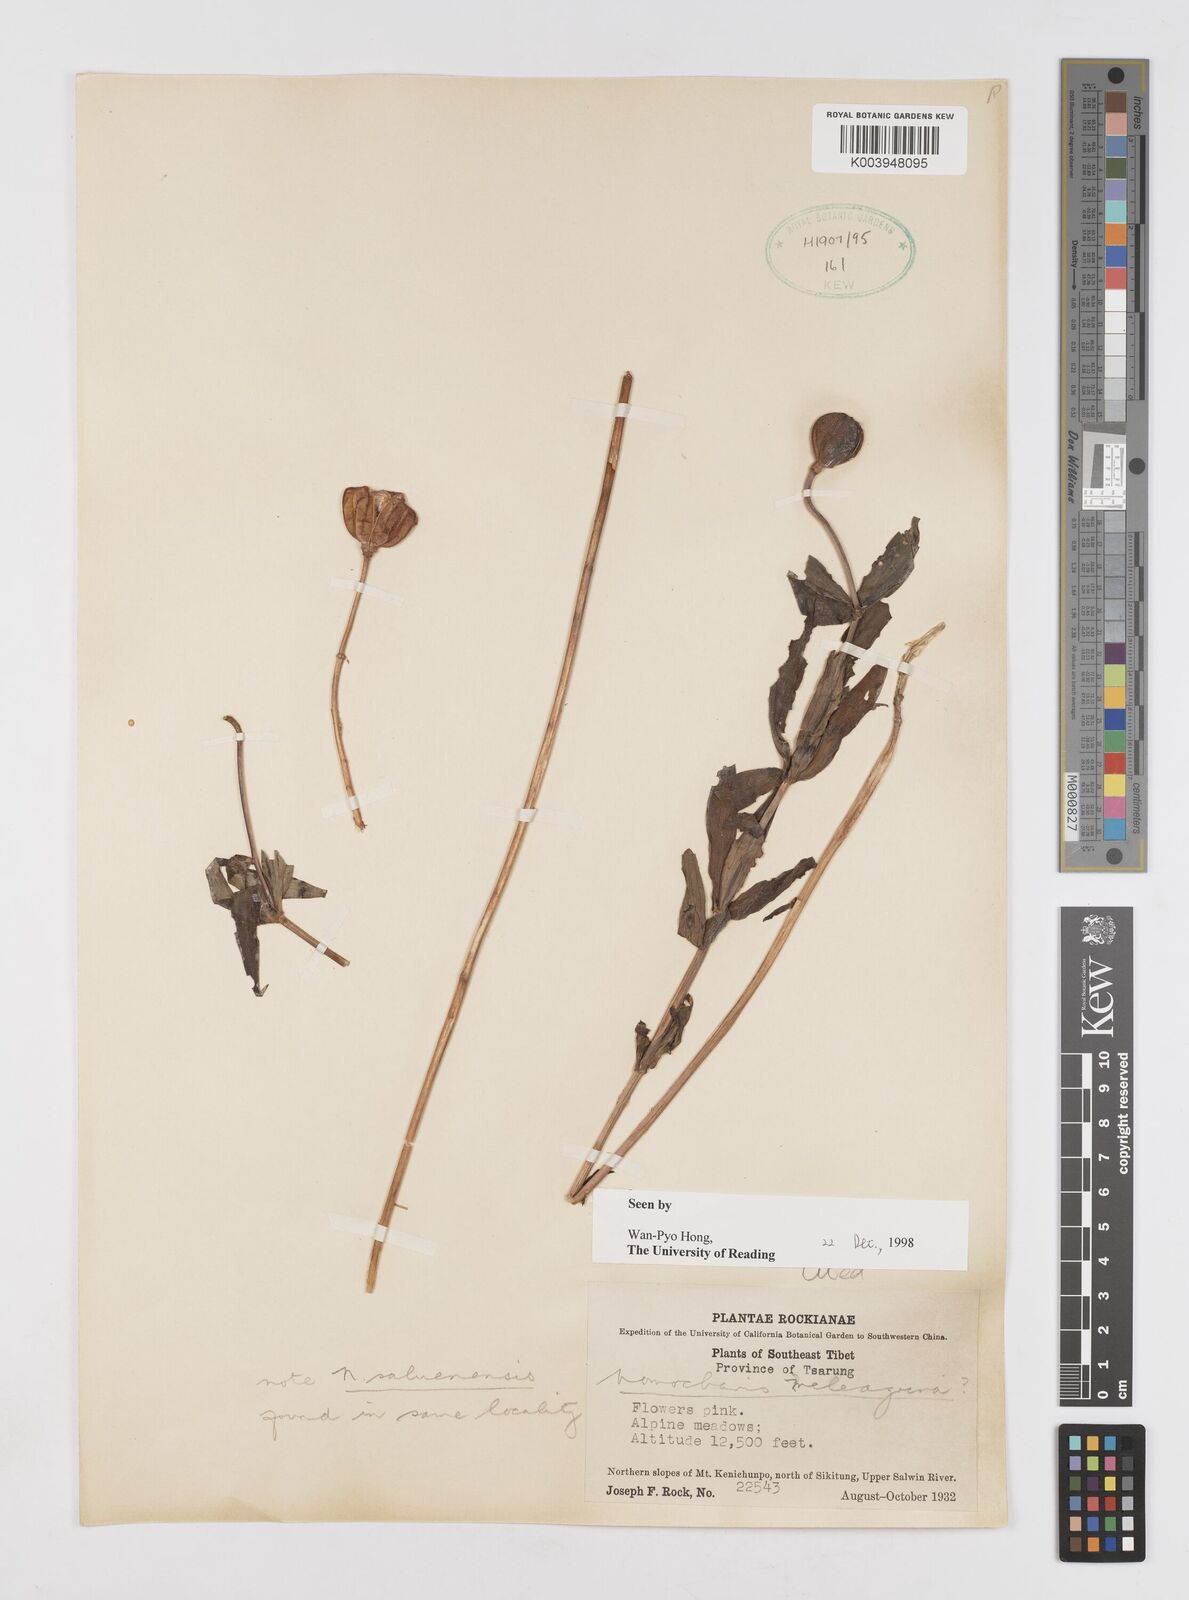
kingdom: Plantae
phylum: Tracheophyta
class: Liliopsida
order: Liliales
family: Liliaceae
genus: Lilium
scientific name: Lilium meleagrina
